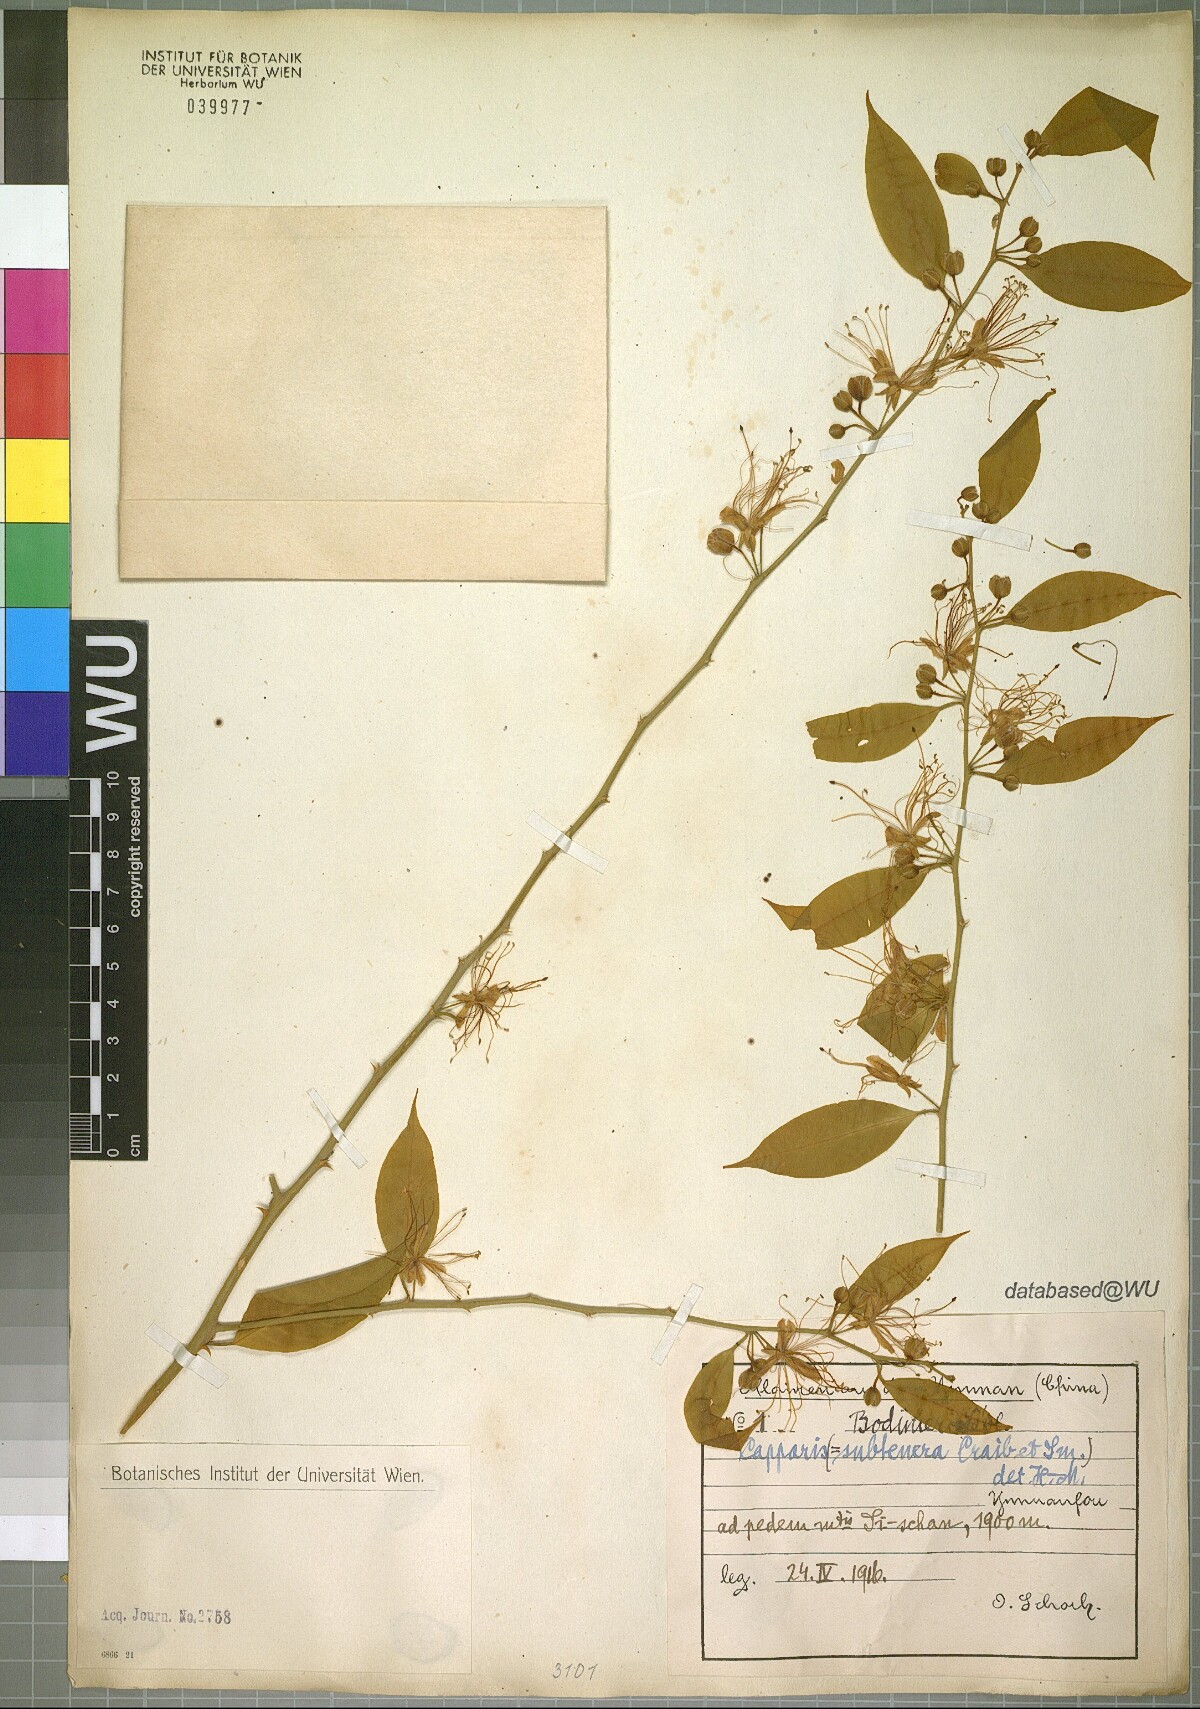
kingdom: Plantae
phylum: Tracheophyta
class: Magnoliopsida
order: Brassicales
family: Capparaceae
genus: Capparis
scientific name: Capparis bodinieri
